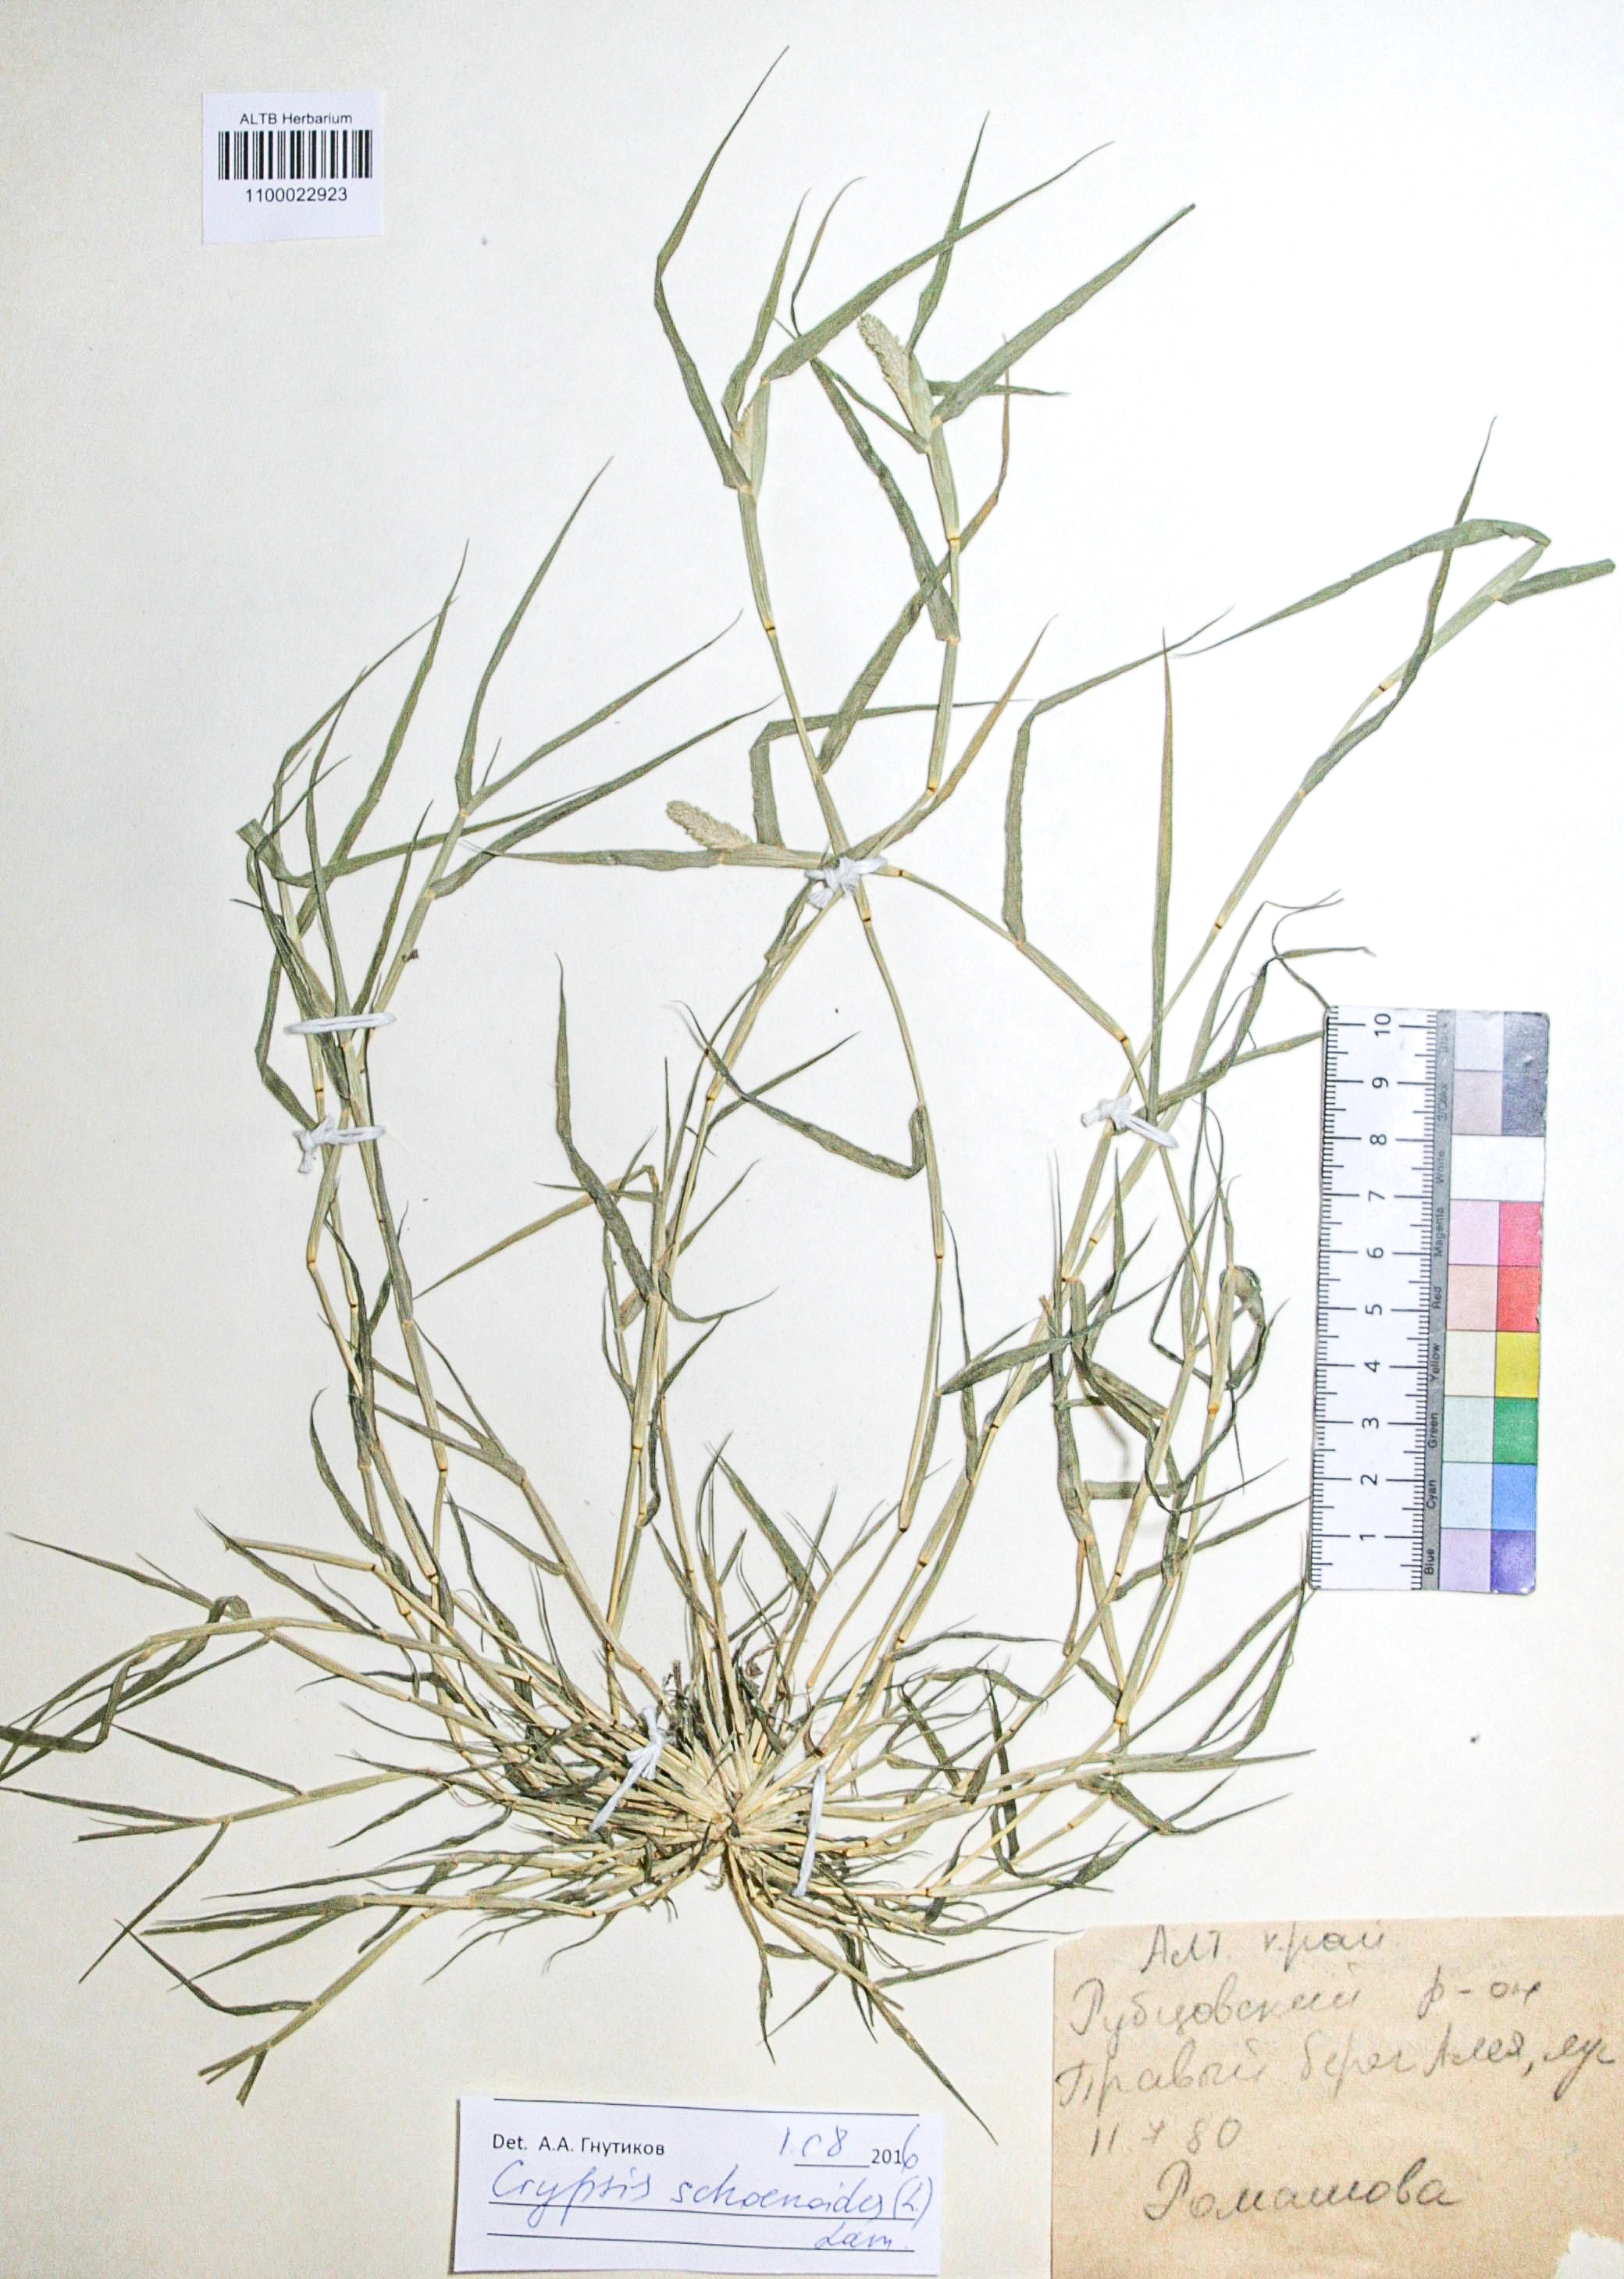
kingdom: Plantae
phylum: Tracheophyta
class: Liliopsida
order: Poales
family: Poaceae
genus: Sporobolus
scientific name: Sporobolus schoenoides
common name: Rush-like timothy
